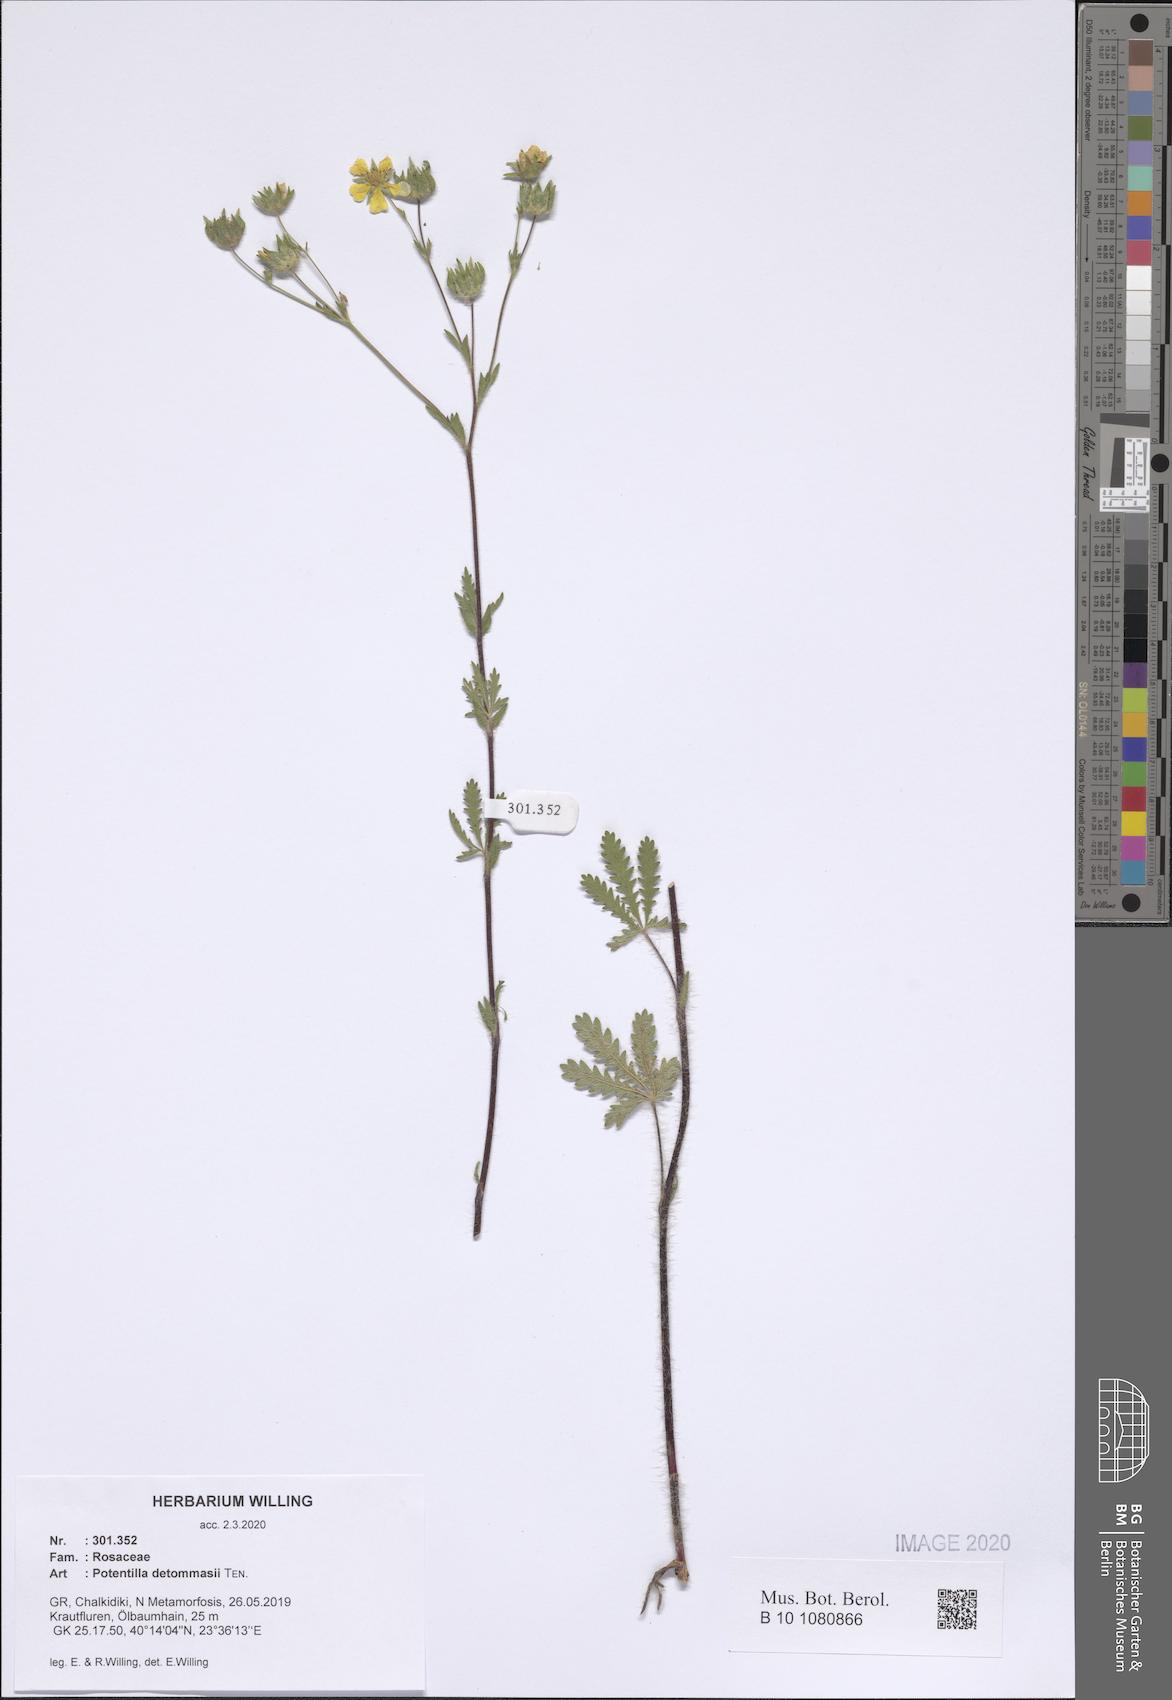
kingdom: Plantae
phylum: Tracheophyta
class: Magnoliopsida
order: Rosales
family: Rosaceae
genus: Potentilla
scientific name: Potentilla detommasii
